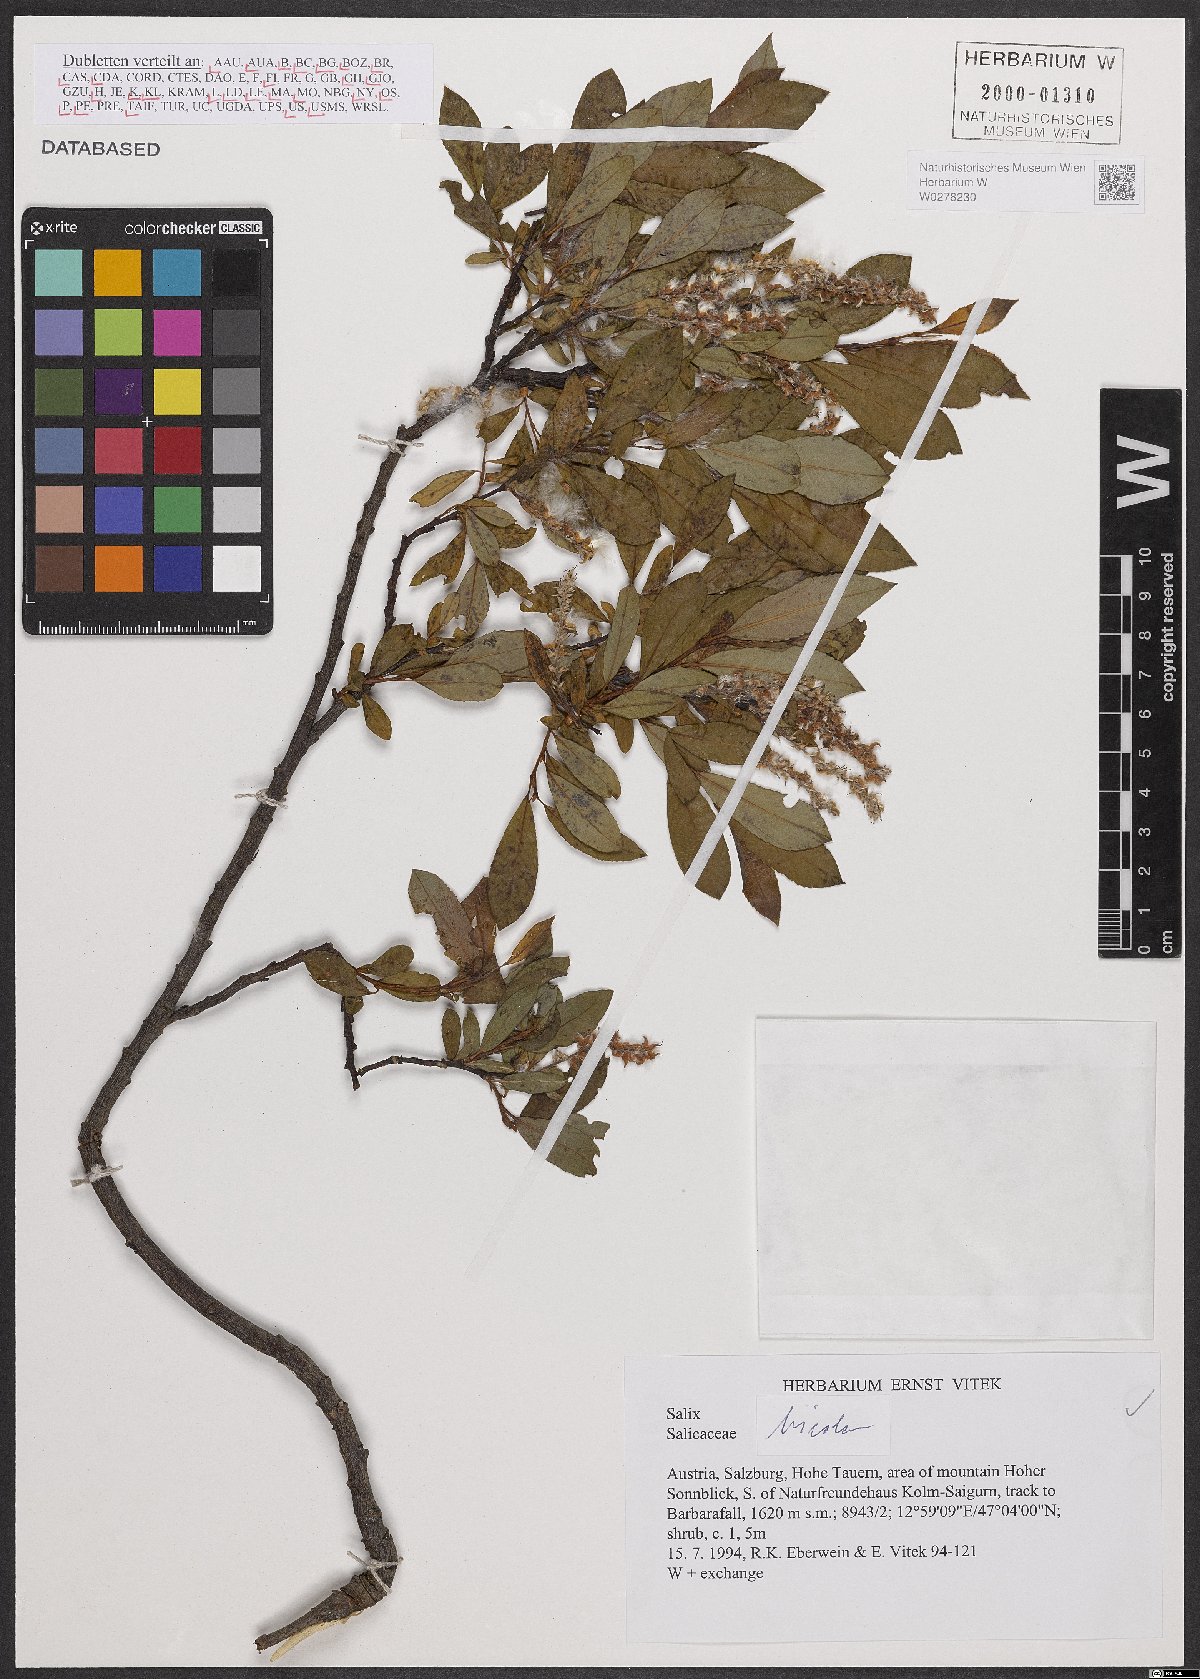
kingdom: Plantae
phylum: Tracheophyta
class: Magnoliopsida
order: Malpighiales
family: Salicaceae
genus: Salix
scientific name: Salix bicolor
